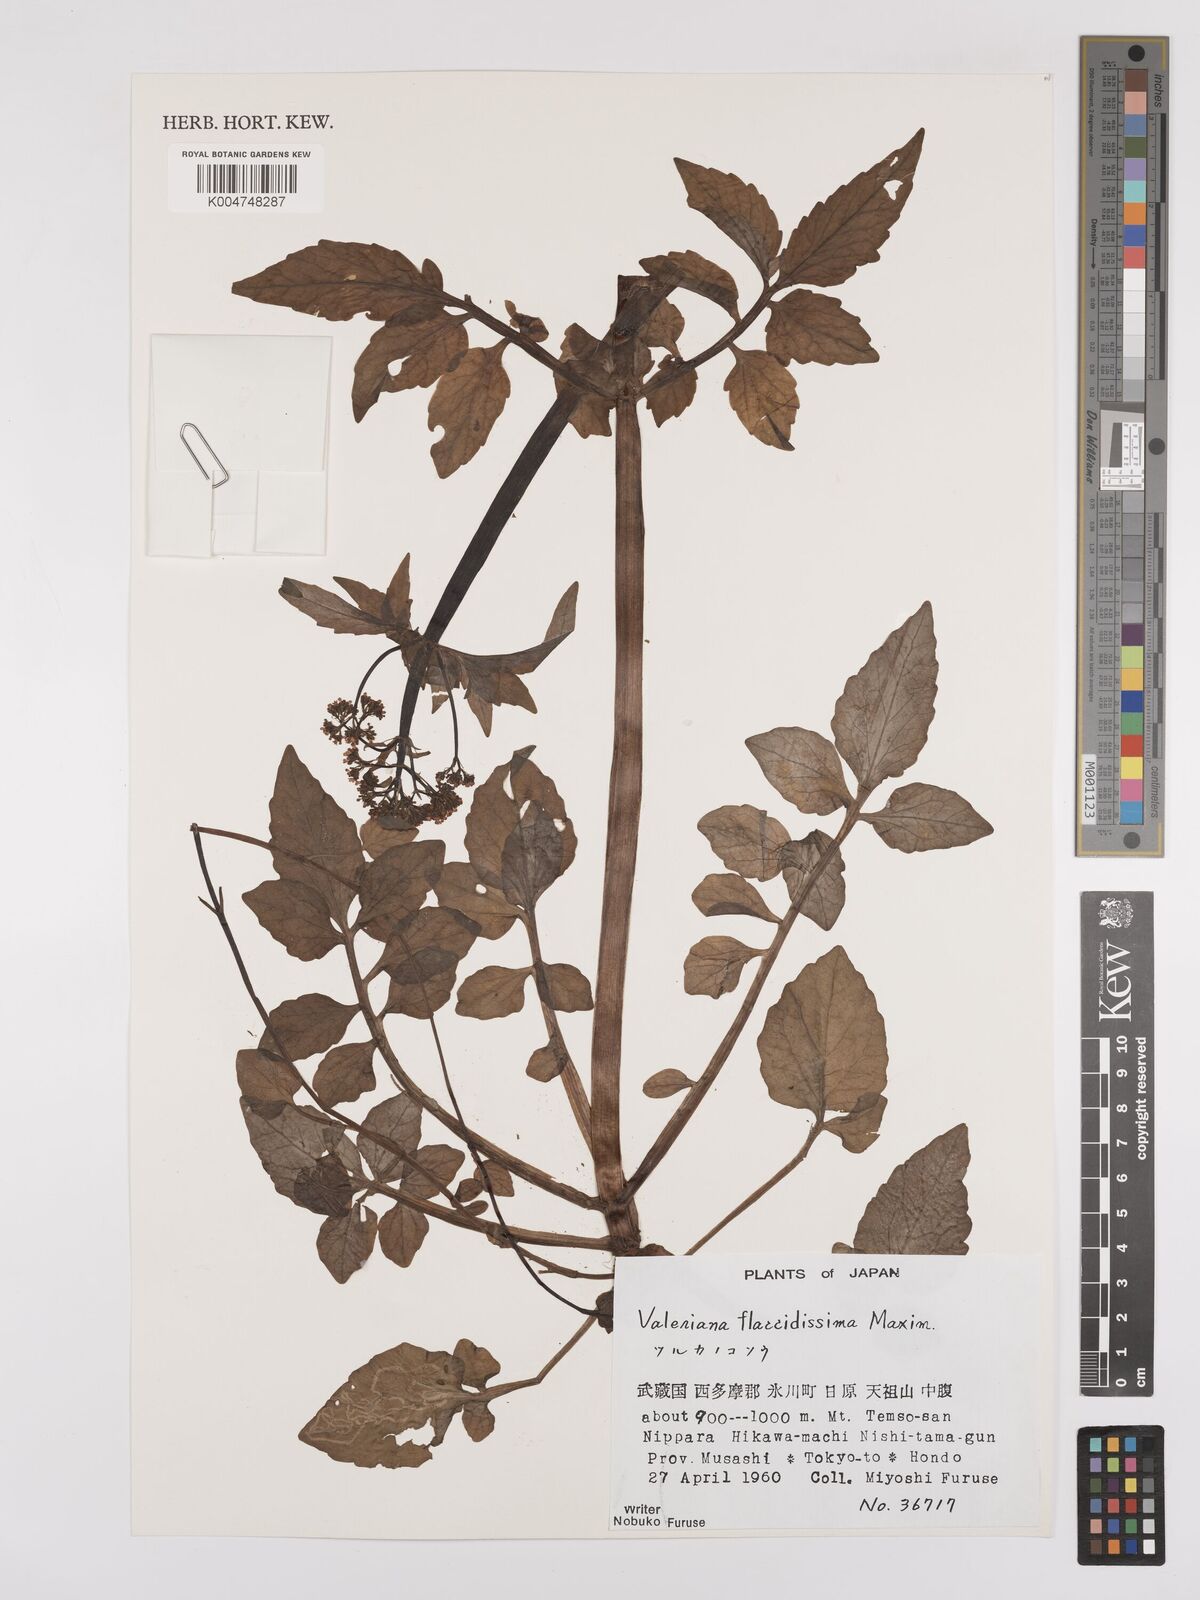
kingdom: Plantae
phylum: Tracheophyta
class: Magnoliopsida
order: Dipsacales
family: Caprifoliaceae
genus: Valeriana
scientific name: Valeriana flaccidissima
